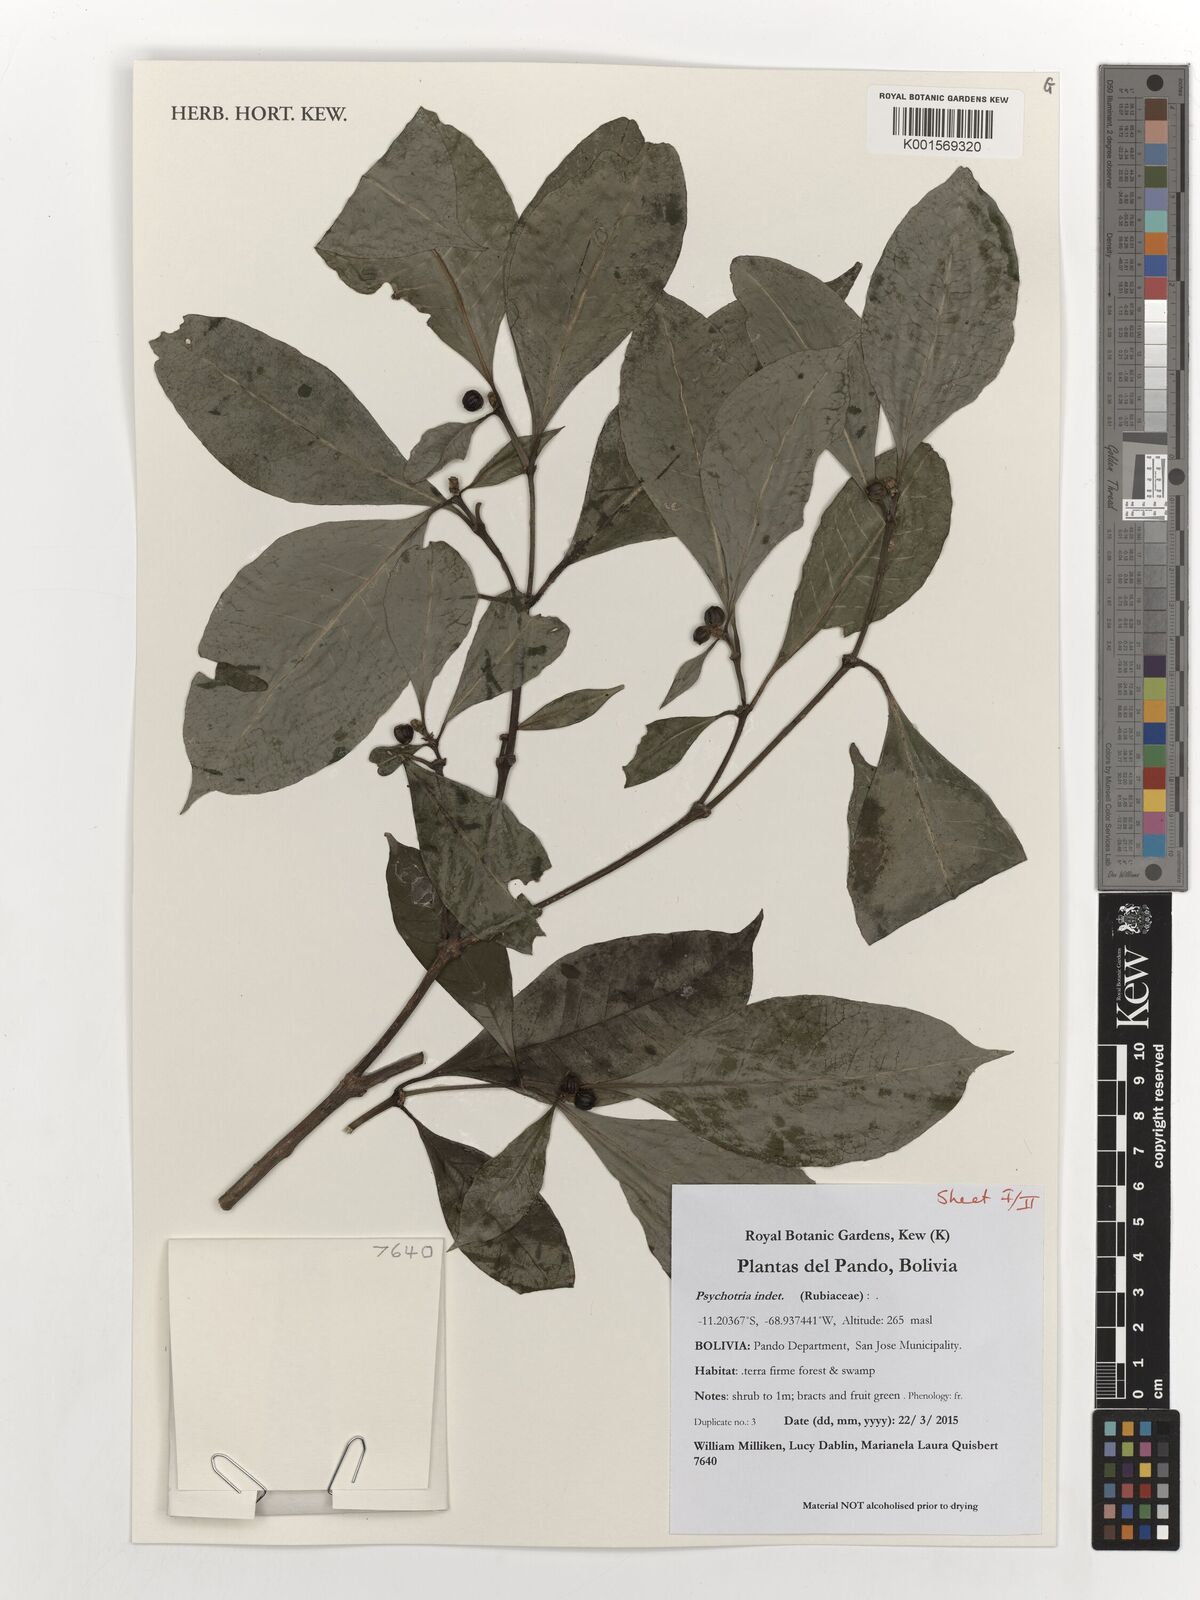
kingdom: Plantae
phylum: Tracheophyta
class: Magnoliopsida
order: Gentianales
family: Rubiaceae
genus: Psychotria
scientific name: Psychotria
